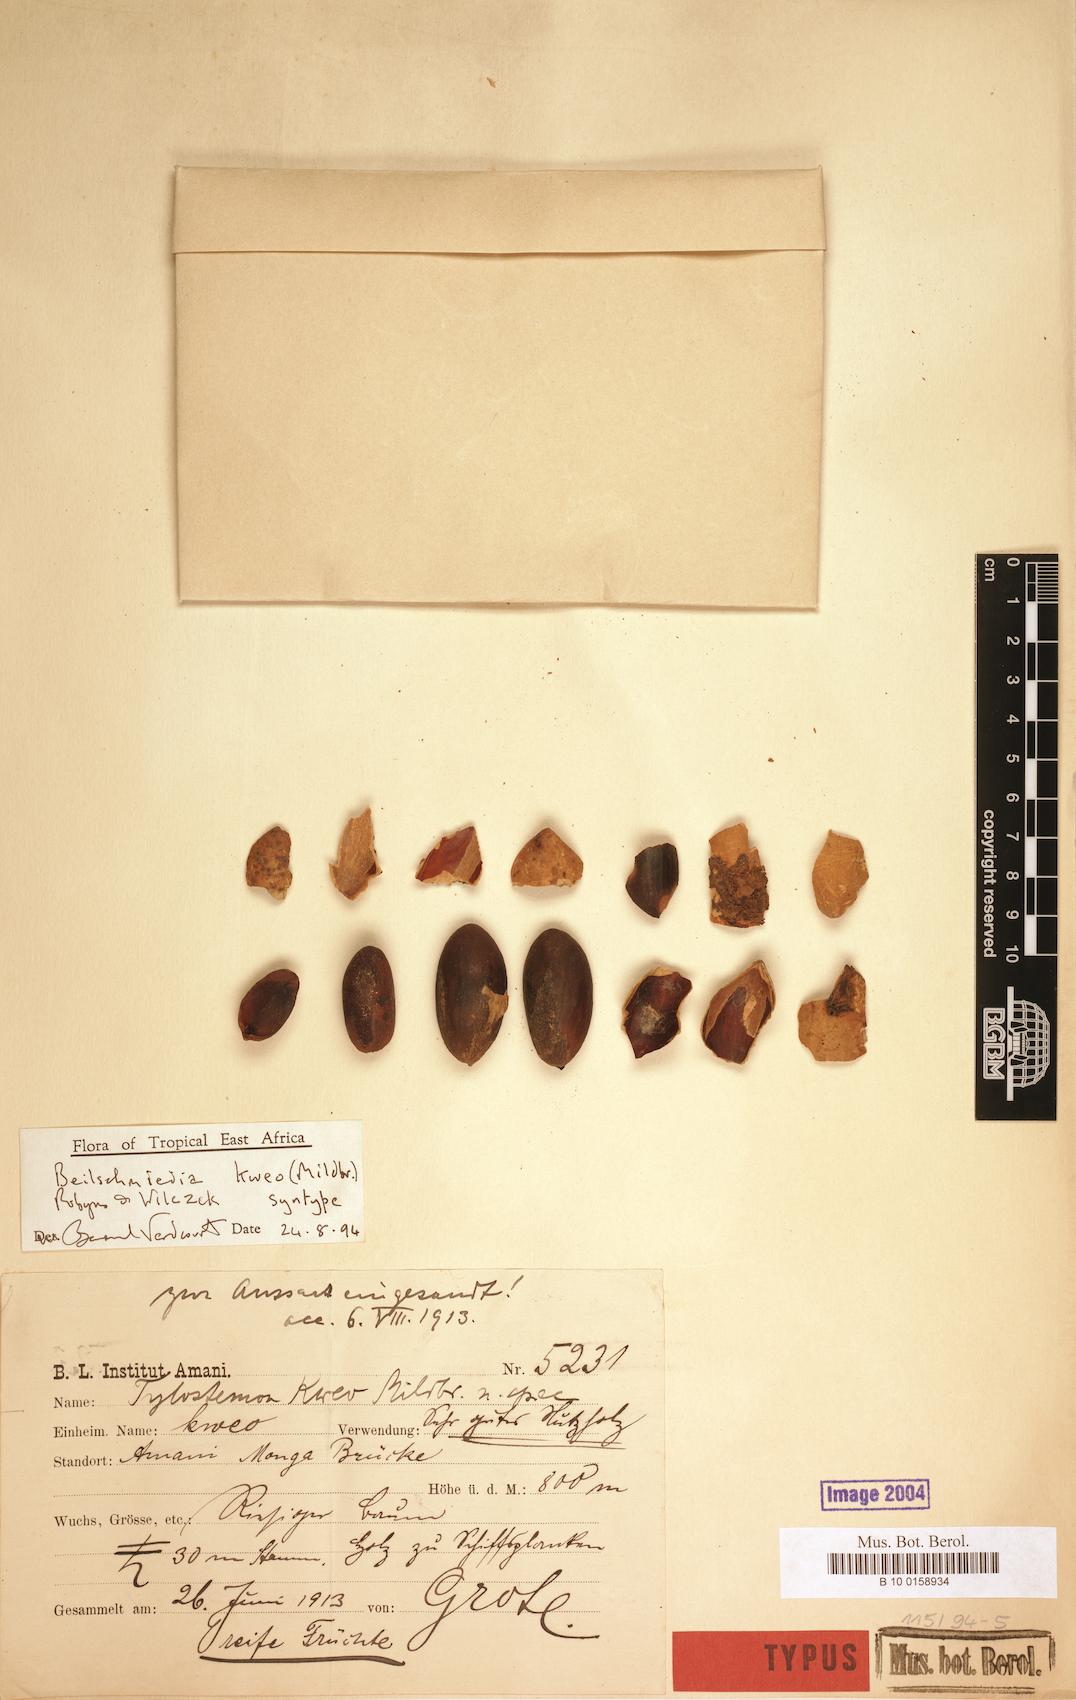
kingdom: Plantae
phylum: Tracheophyta
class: Magnoliopsida
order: Laurales
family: Lauraceae
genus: Beilschmiedia
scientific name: Beilschmiedia kweo
